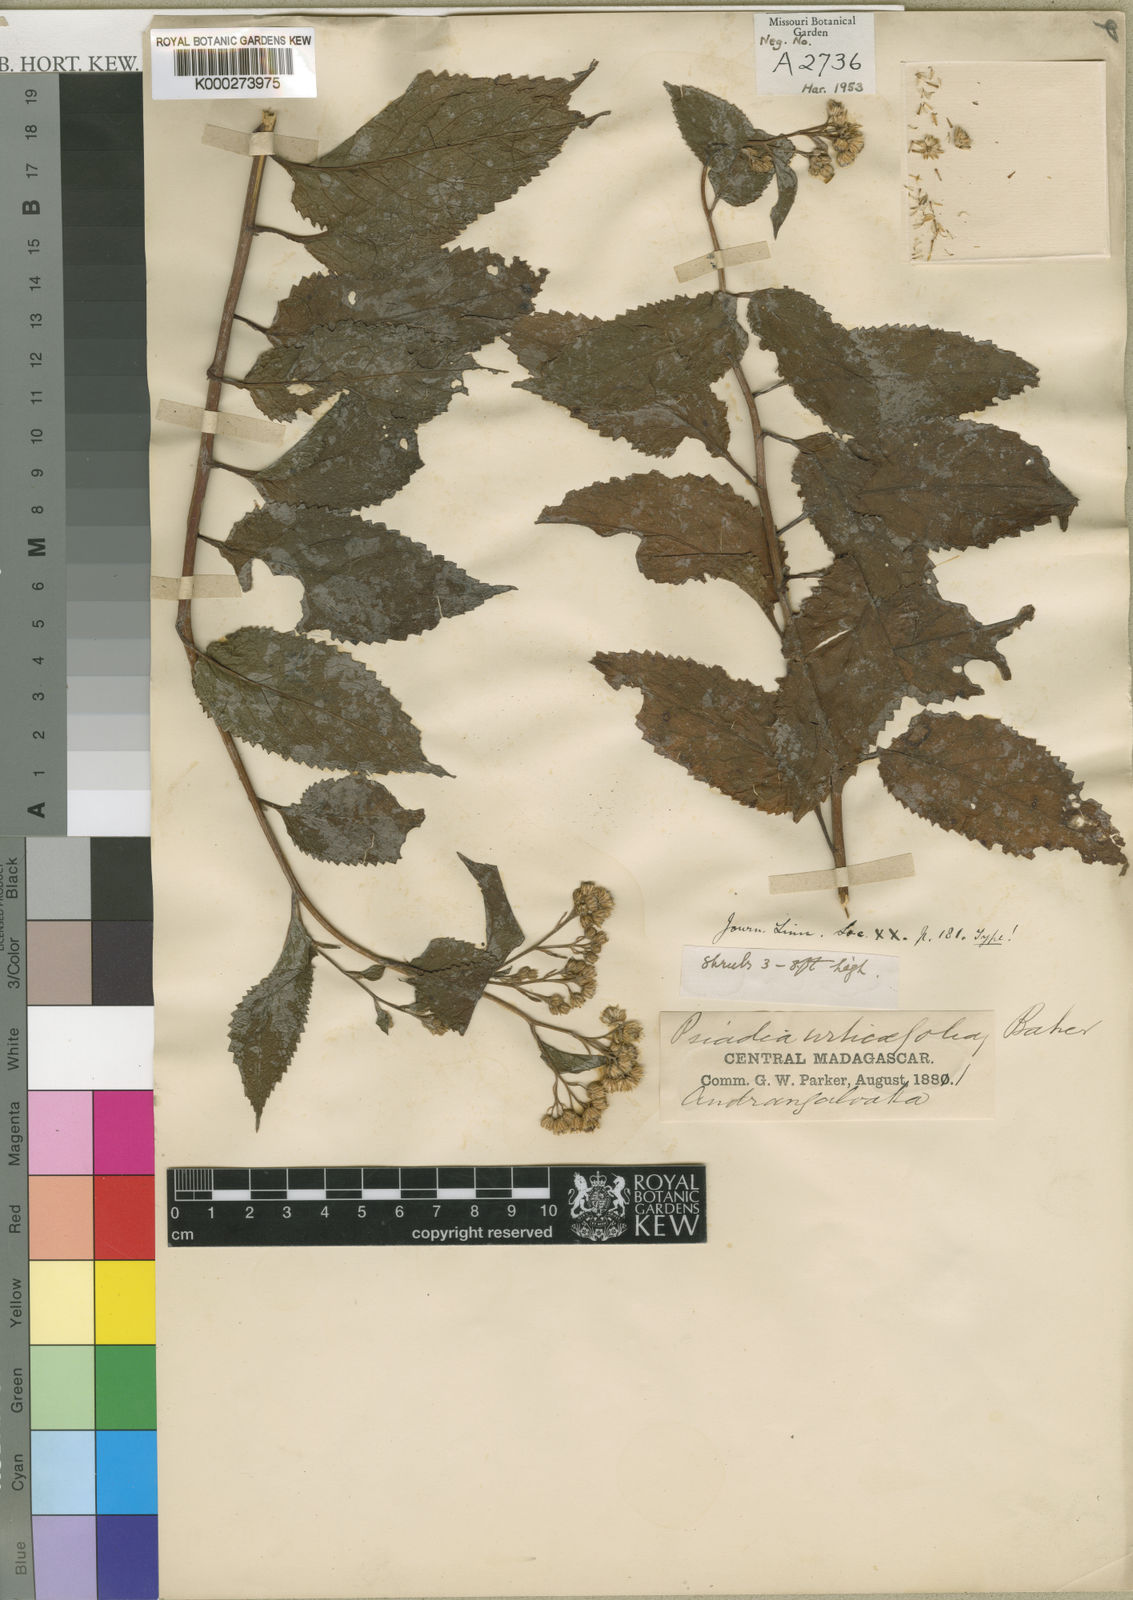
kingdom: Plantae
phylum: Tracheophyta
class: Magnoliopsida
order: Asterales
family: Asteraceae
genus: Conyza
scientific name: Conyza urticifolia
